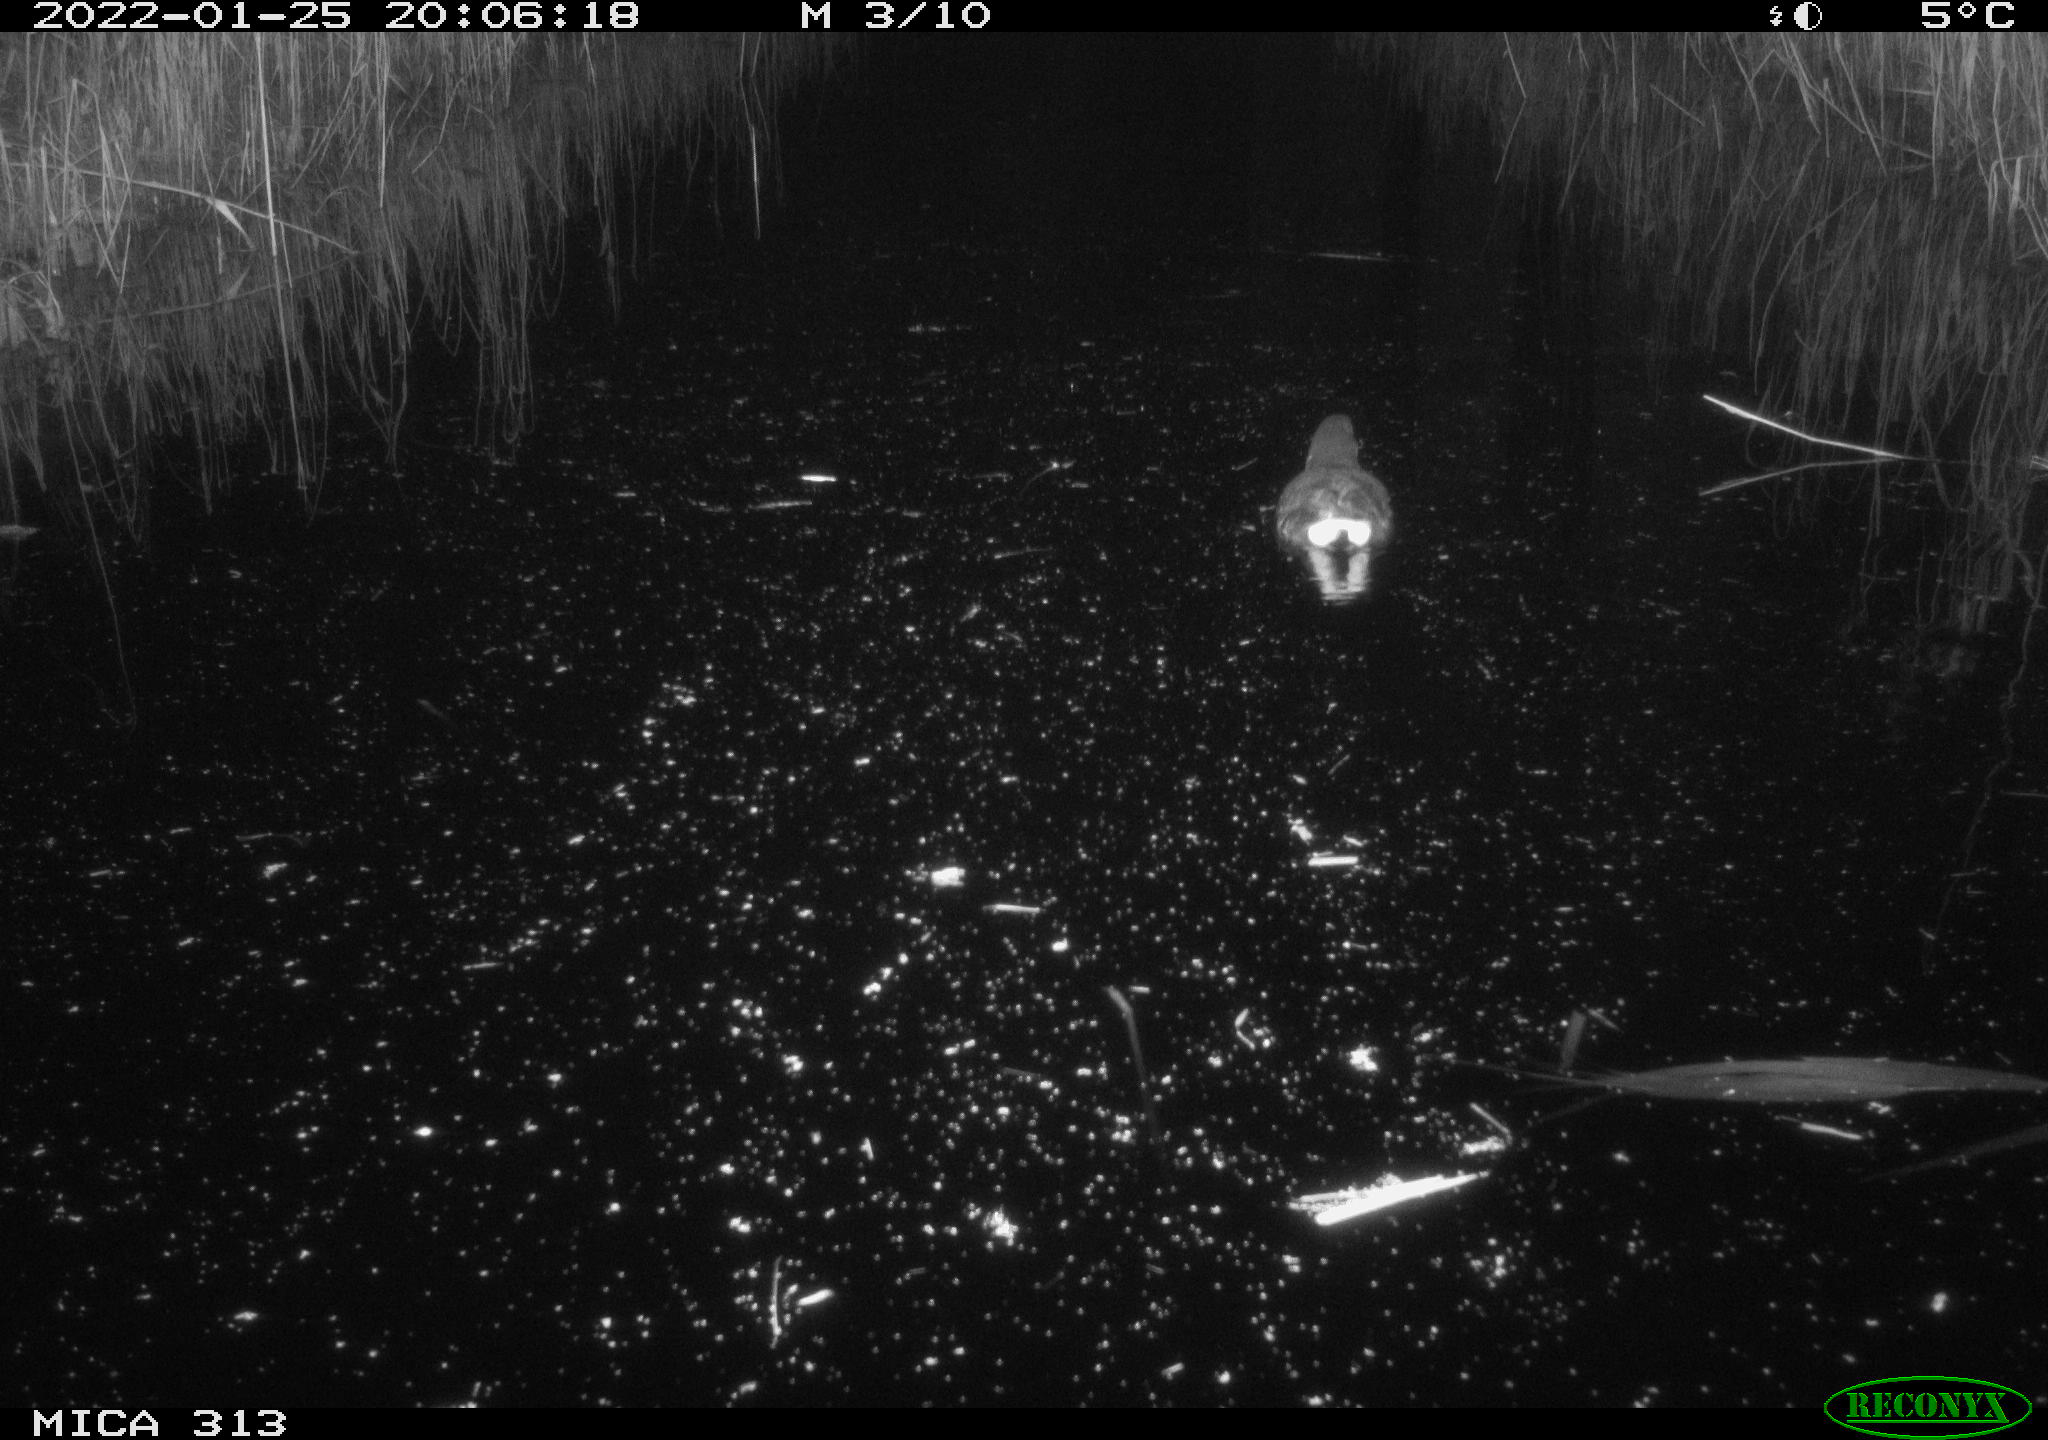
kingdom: Animalia
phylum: Chordata
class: Aves
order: Gruiformes
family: Rallidae
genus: Gallinula
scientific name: Gallinula chloropus
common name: Common moorhen
